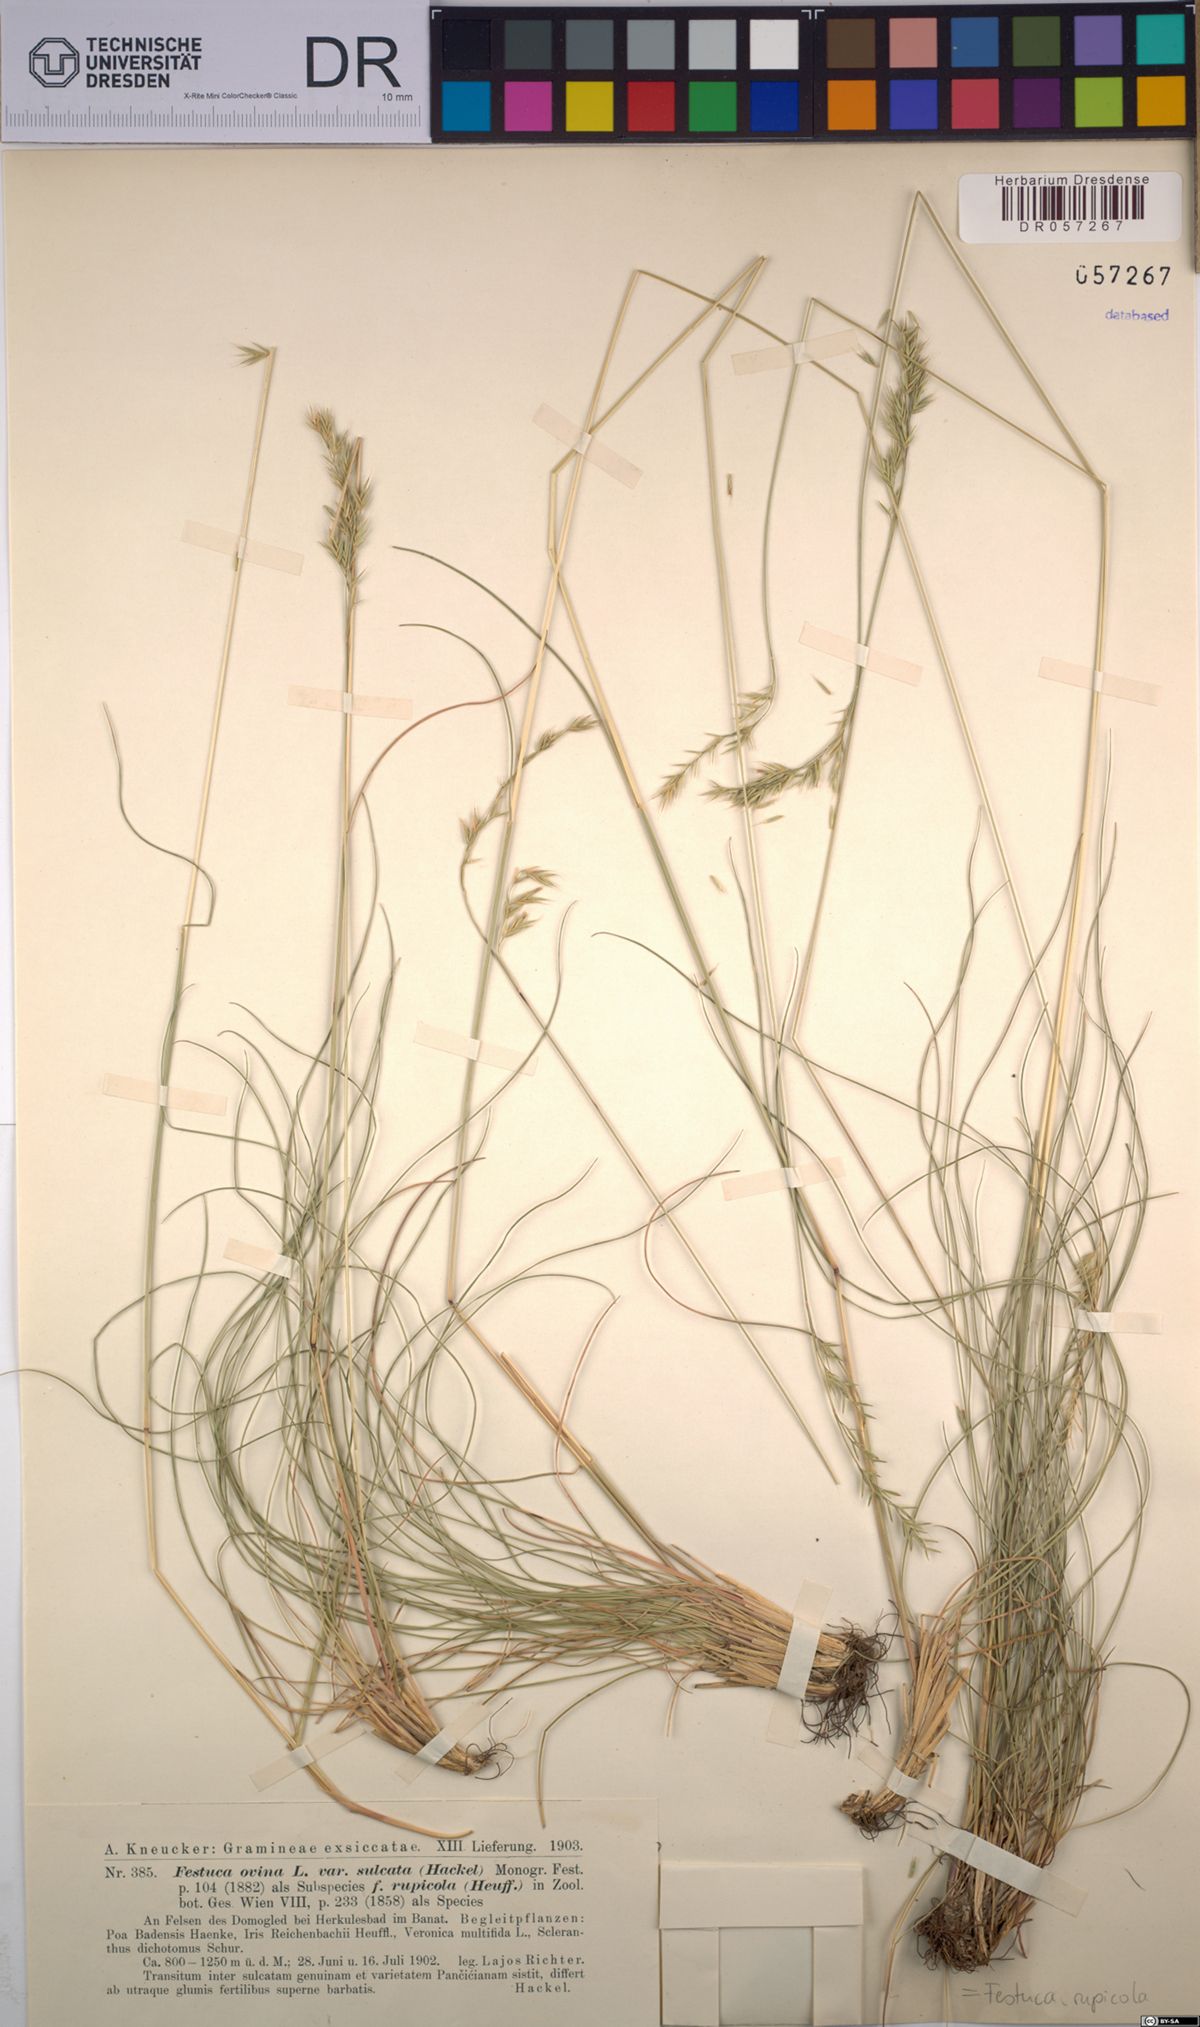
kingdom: Plantae
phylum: Tracheophyta
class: Liliopsida
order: Poales
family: Poaceae
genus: Festuca
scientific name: Festuca rupicola
